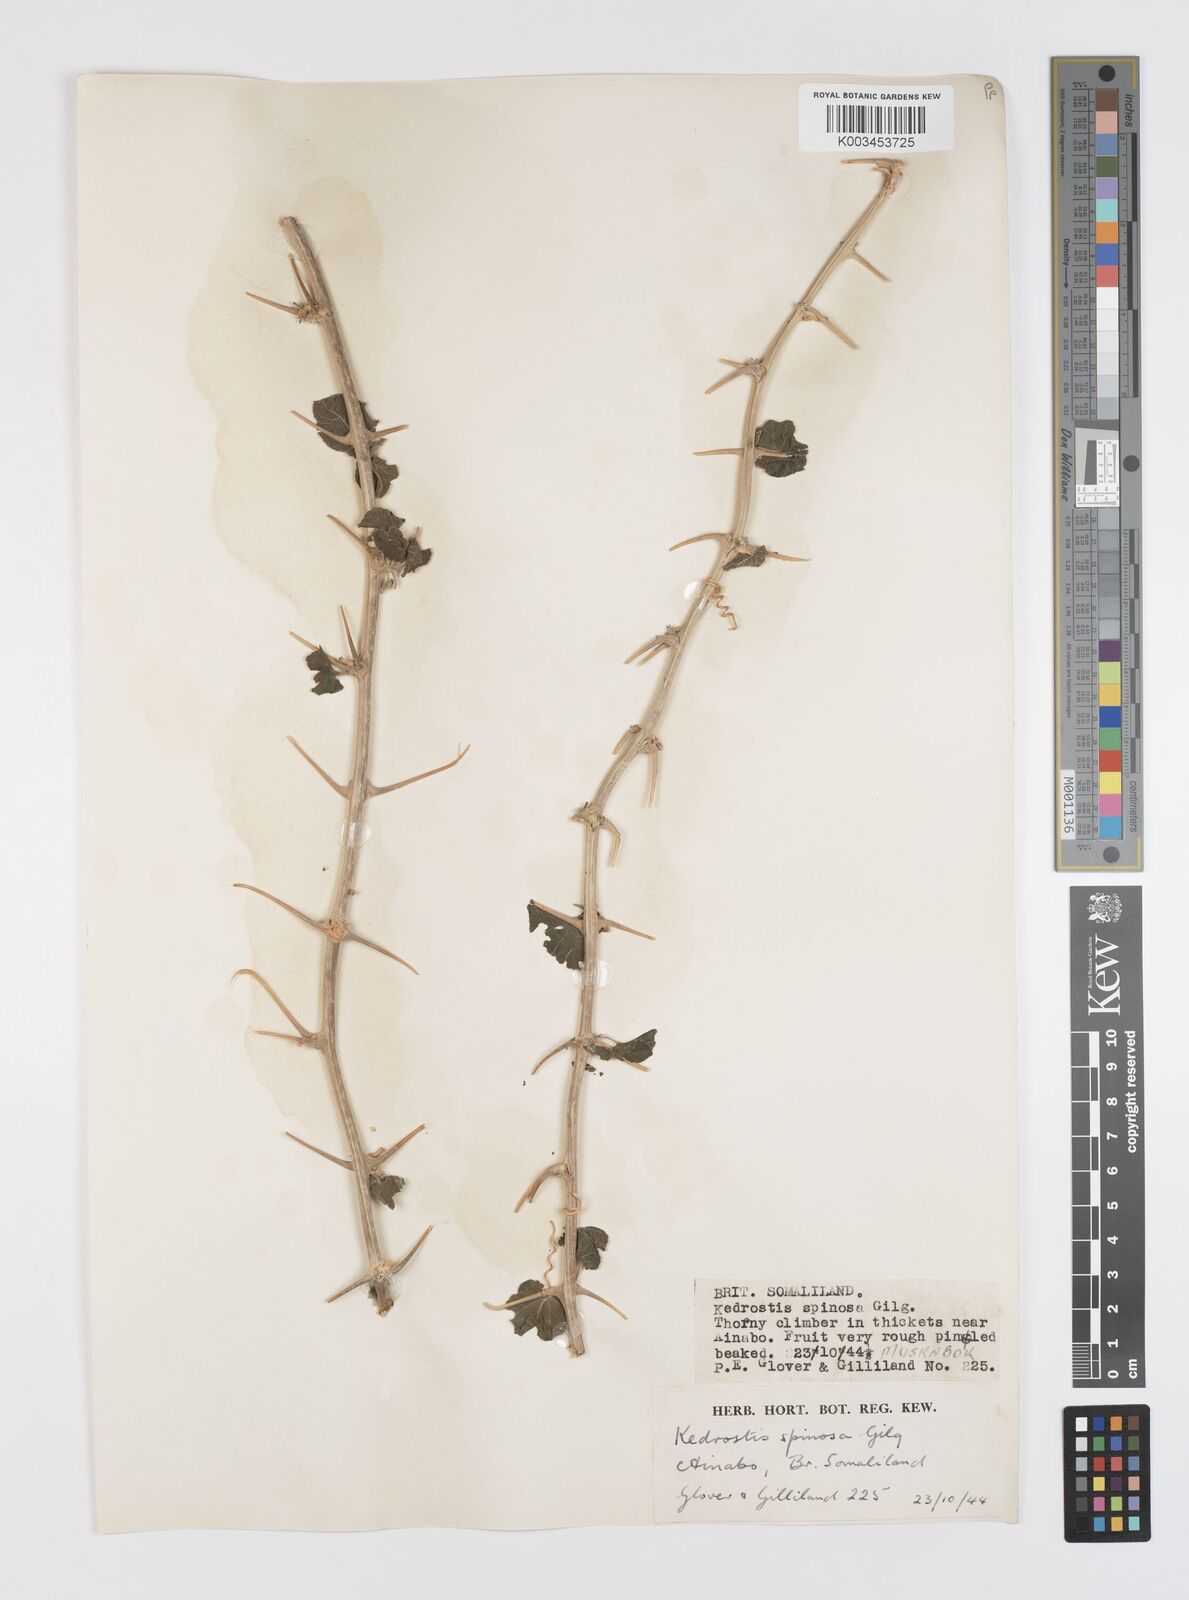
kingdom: Plantae
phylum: Tracheophyta
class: Magnoliopsida
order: Cucurbitales
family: Cucurbitaceae
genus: Momordica
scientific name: Momordica spinosa
